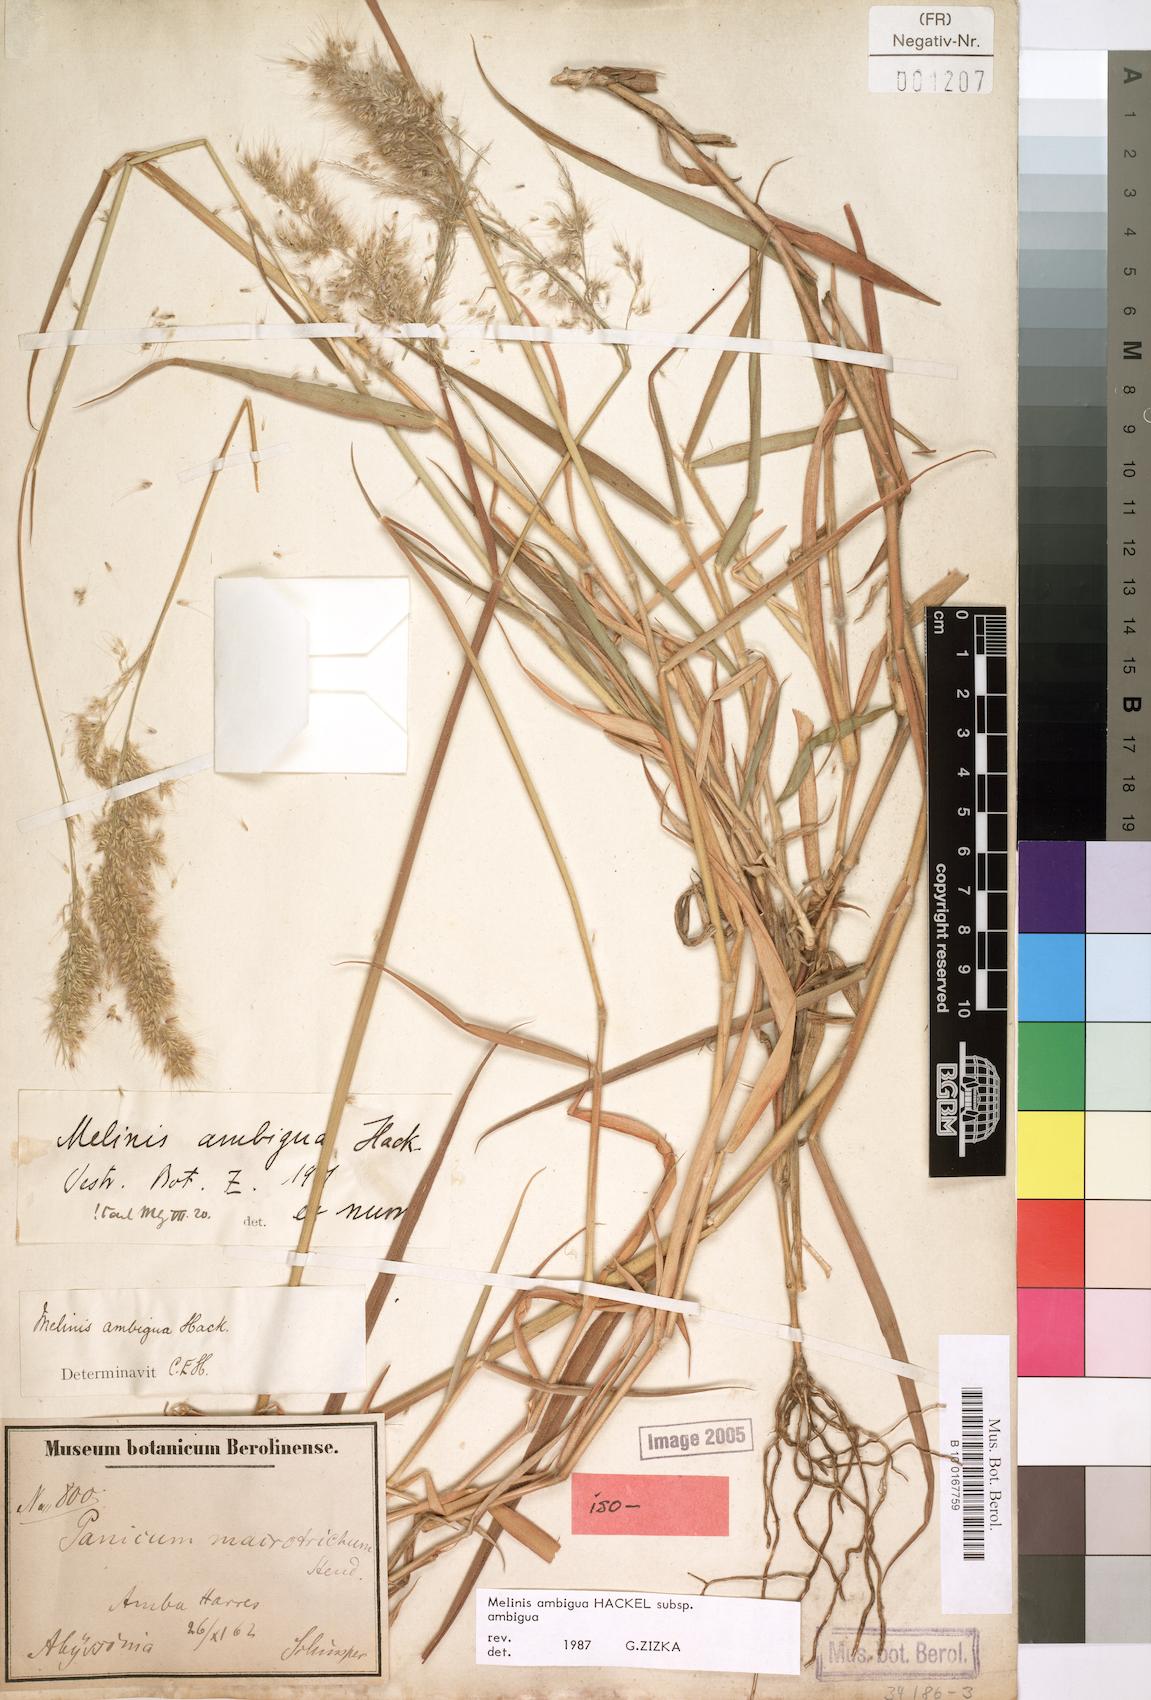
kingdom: Plantae
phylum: Tracheophyta
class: Liliopsida
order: Poales
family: Poaceae
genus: Melinis
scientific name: Melinis ambigua
